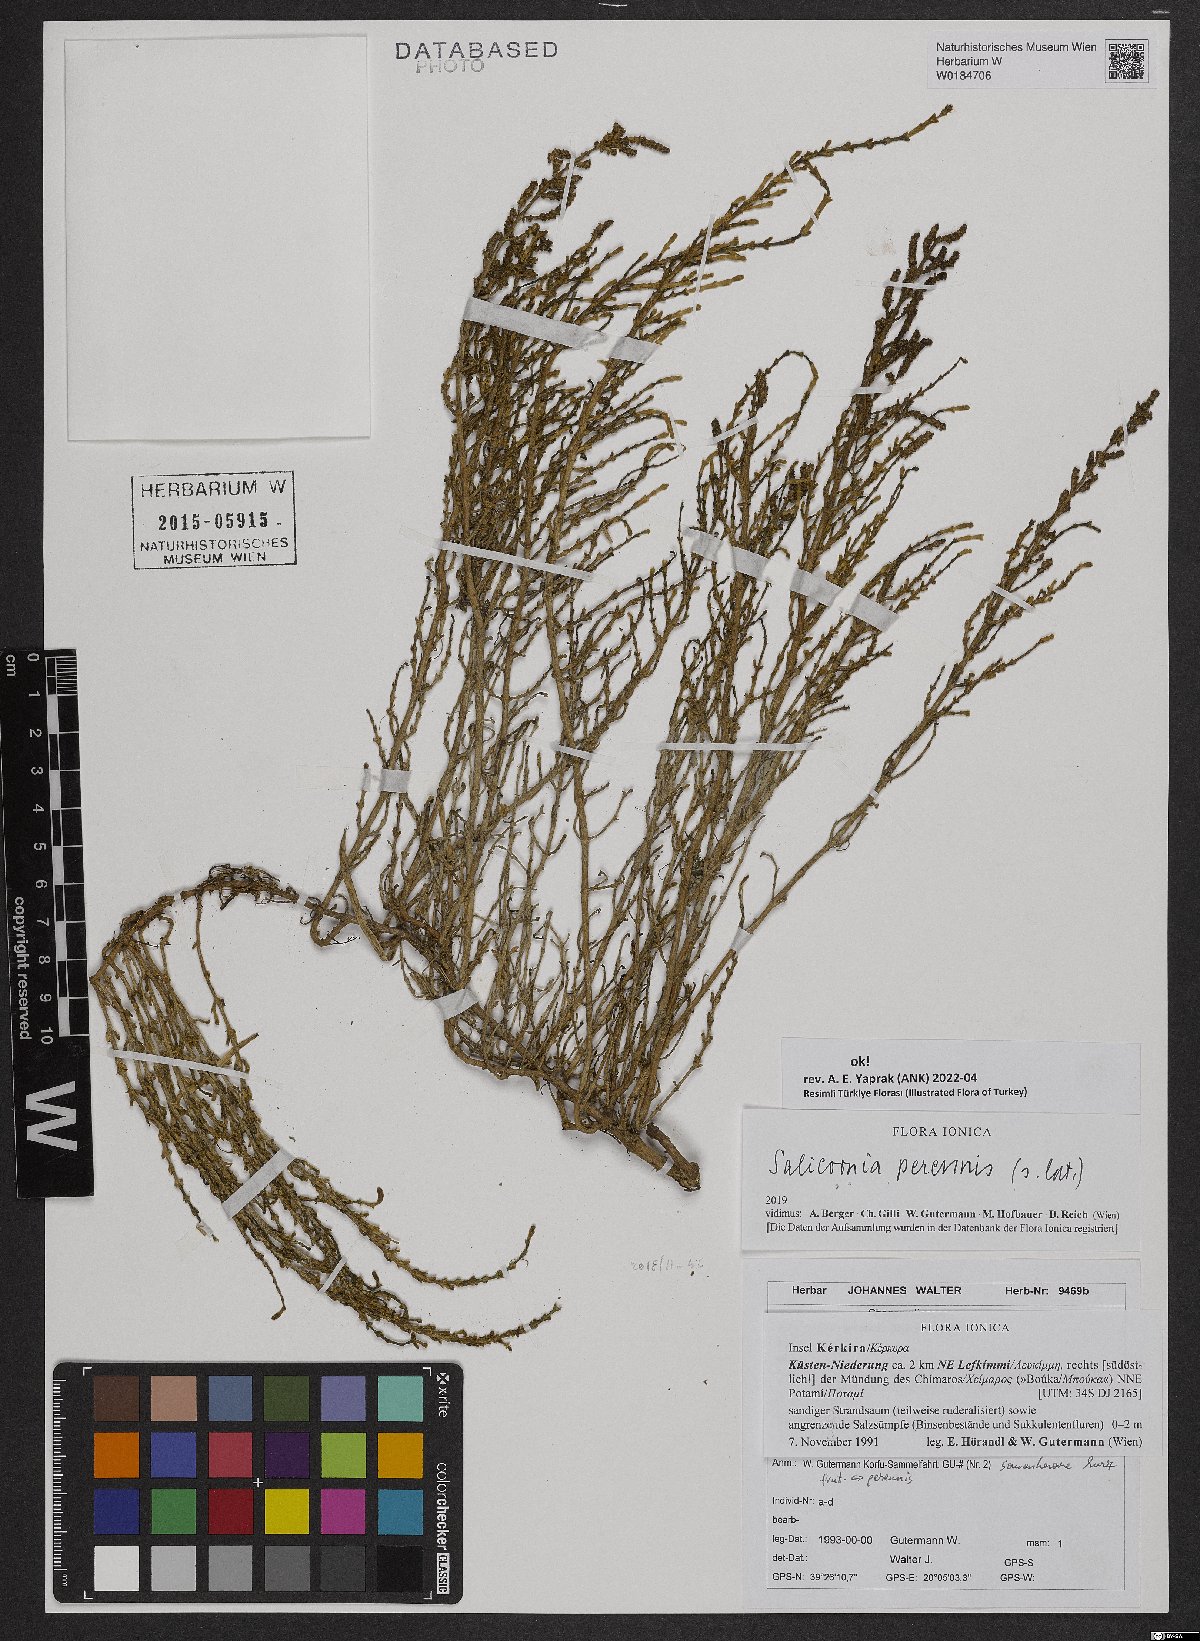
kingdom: Plantae
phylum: Tracheophyta
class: Magnoliopsida
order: Caryophyllales
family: Amaranthaceae
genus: Salicornia
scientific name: Salicornia perennis
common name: Chicken claws
